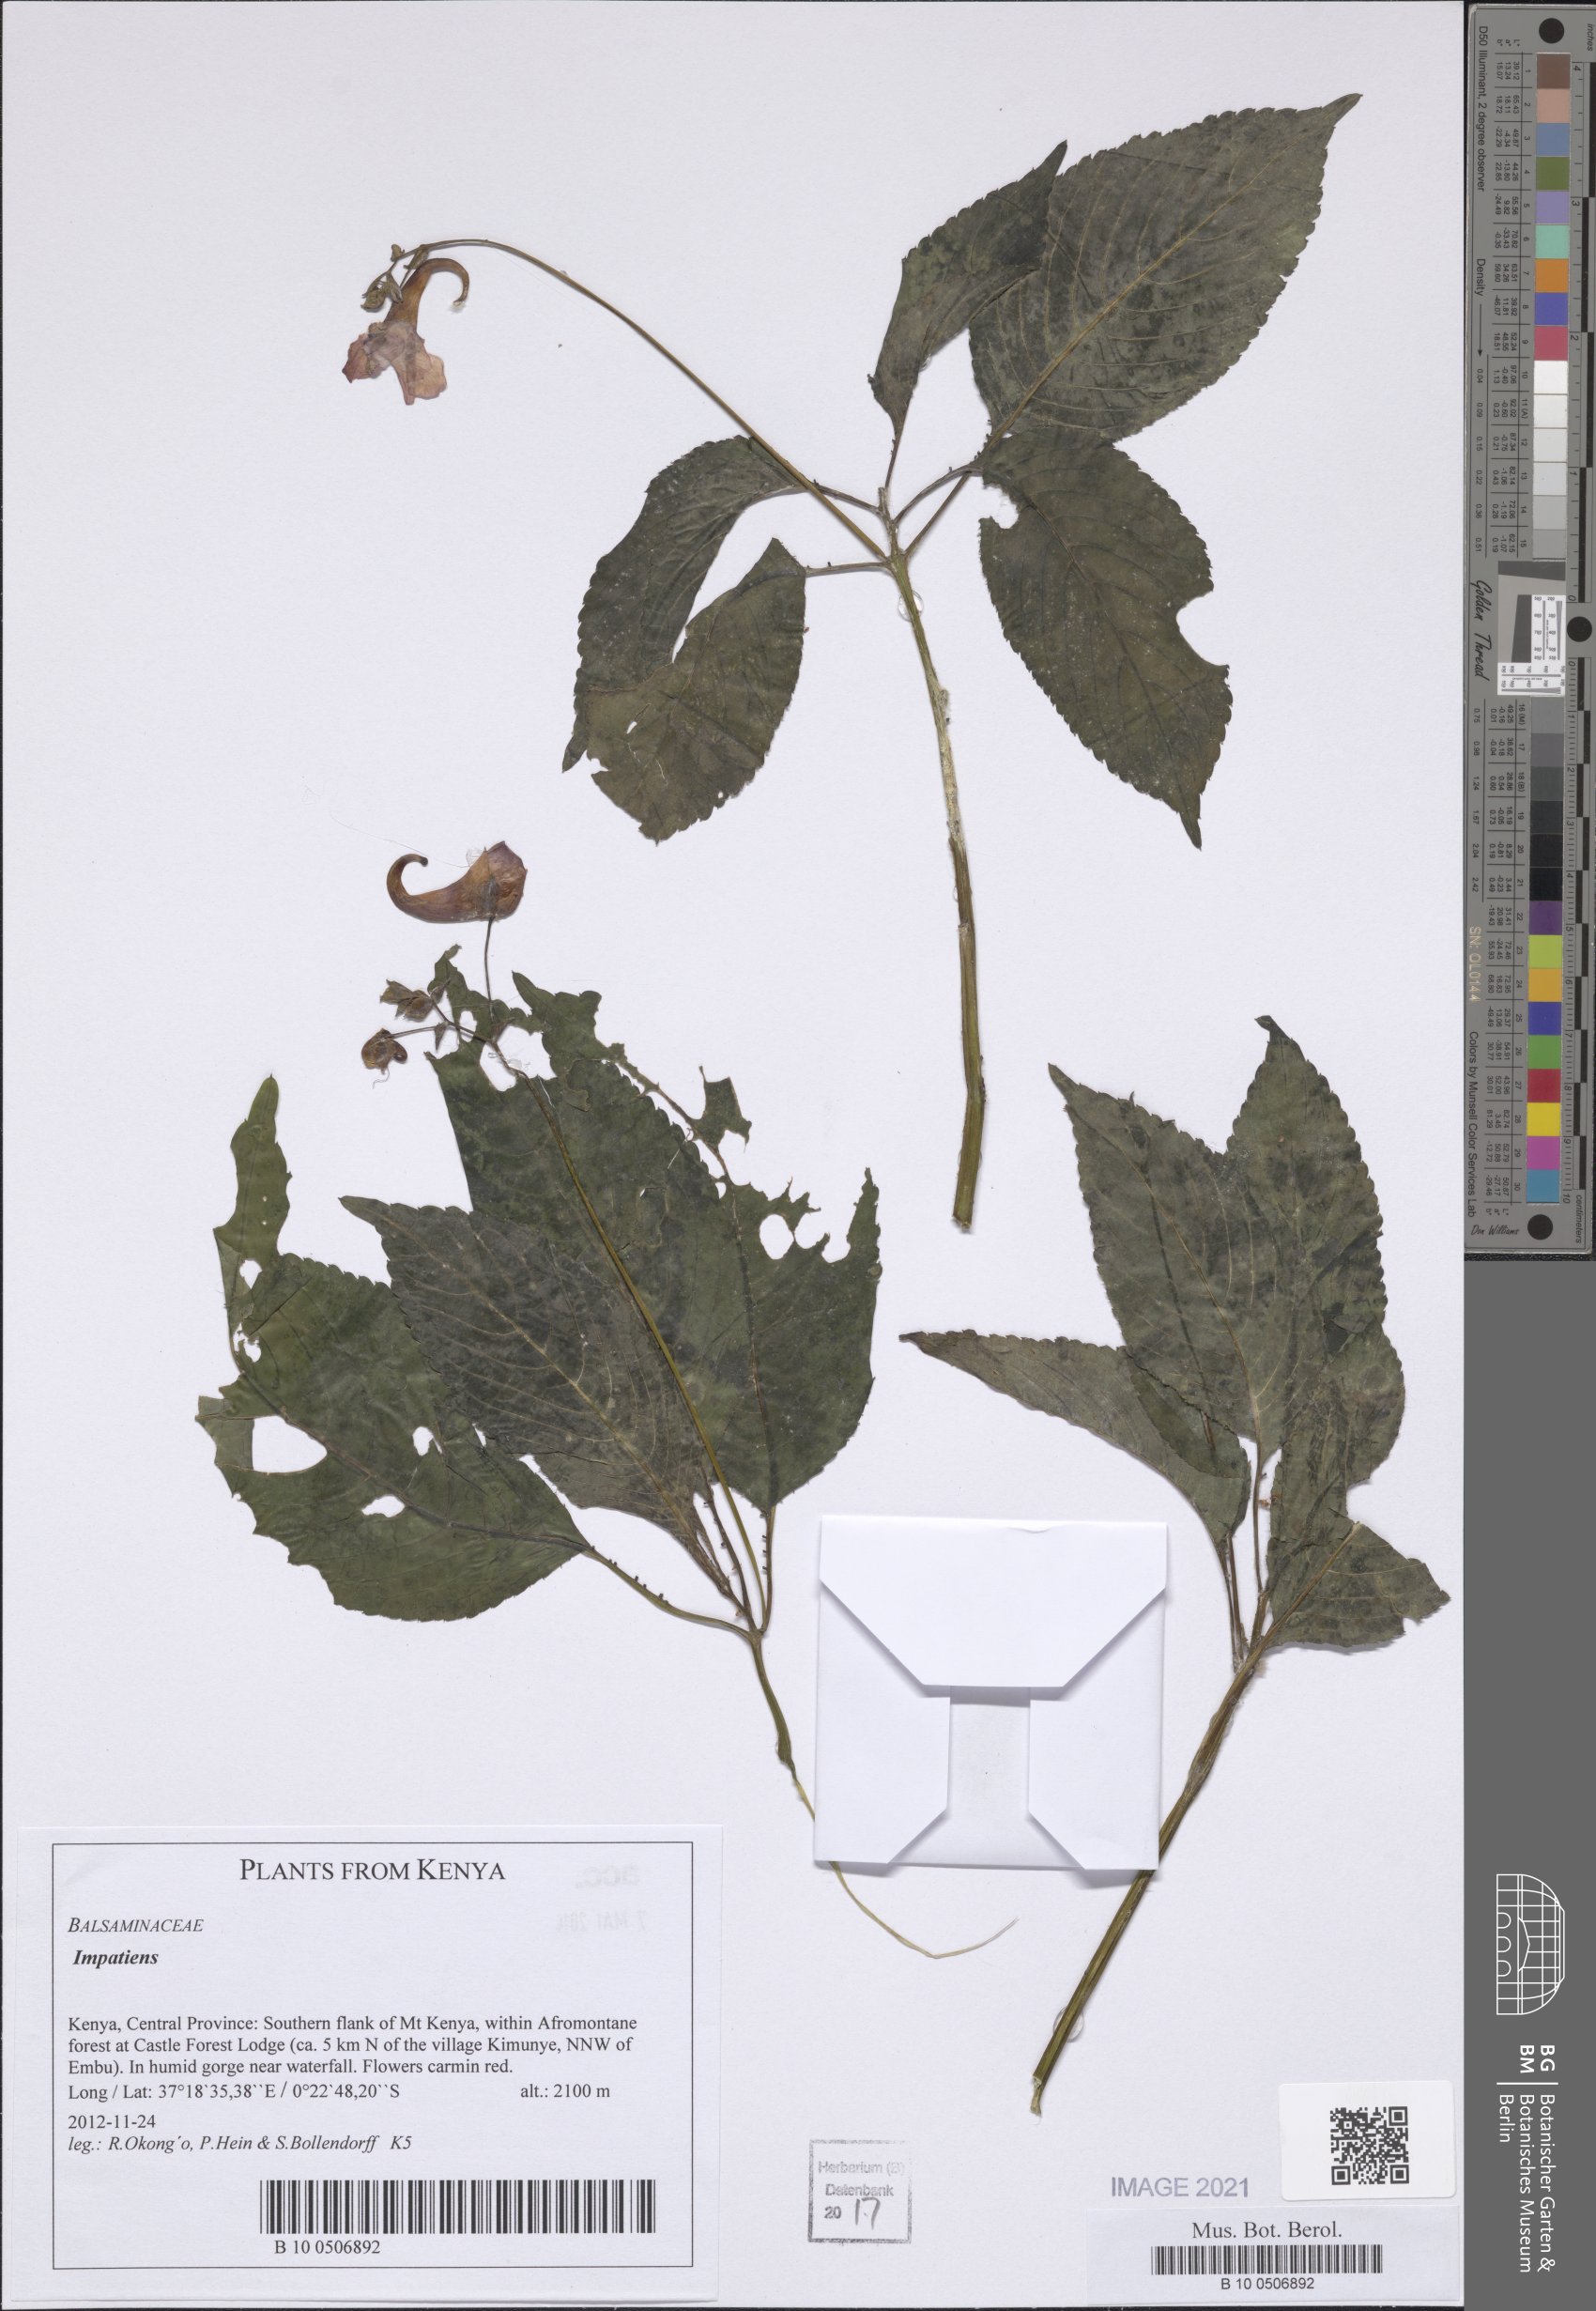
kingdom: Plantae
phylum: Tracheophyta
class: Magnoliopsida
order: Ericales
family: Balsaminaceae
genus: Impatiens
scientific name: Impatiens
